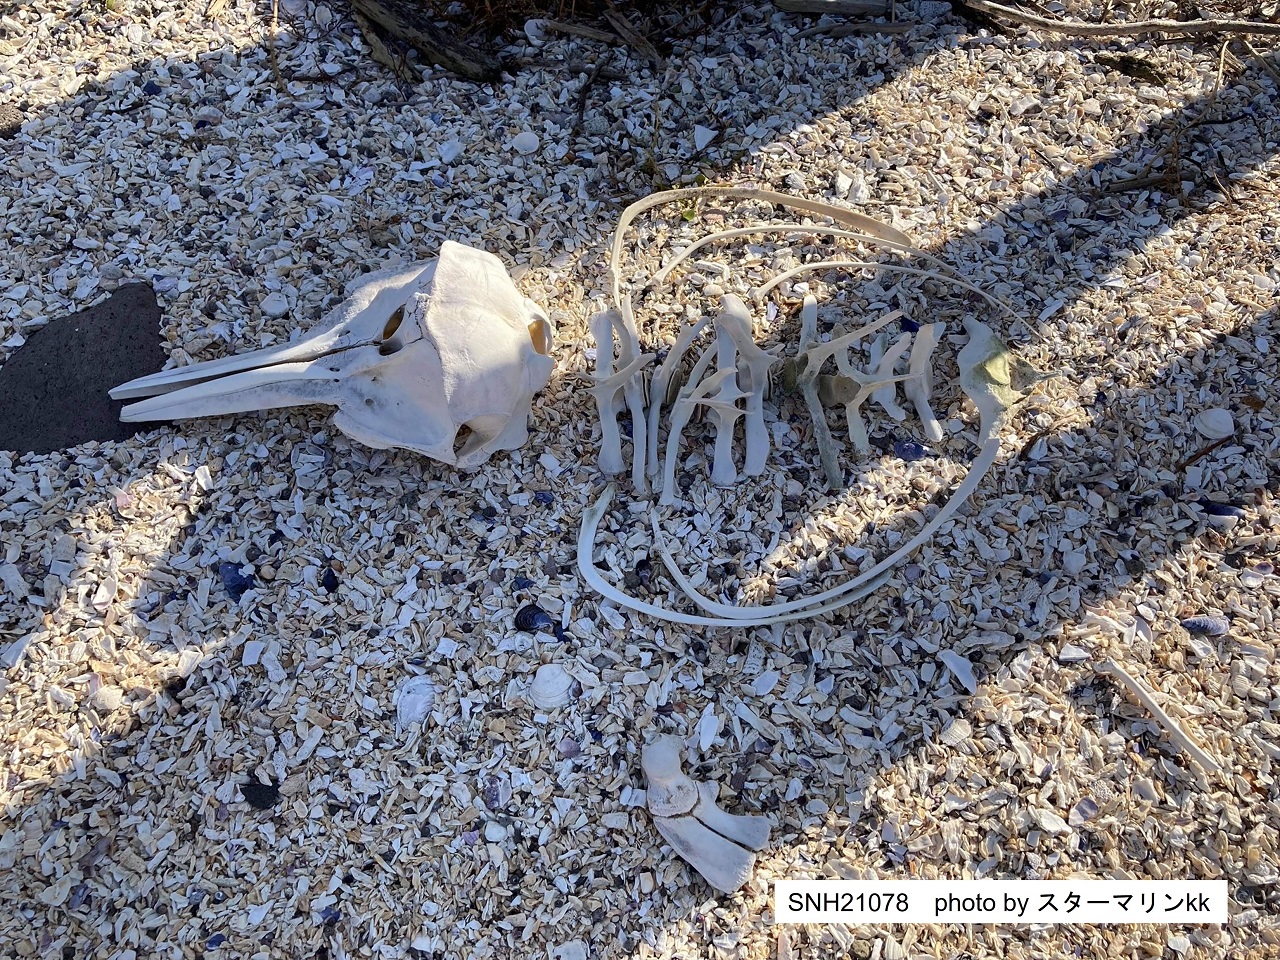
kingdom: Animalia
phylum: Chordata
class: Mammalia
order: Cetacea
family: Delphinidae
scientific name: Delphinidae
